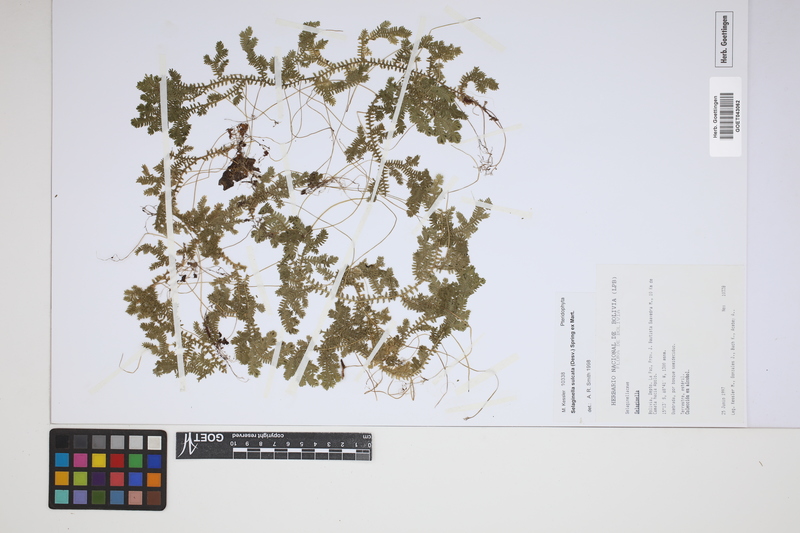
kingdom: Plantae
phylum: Tracheophyta
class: Lycopodiopsida
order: Selaginellales
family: Selaginellaceae
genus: Selaginella
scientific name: Selaginella sulcata
